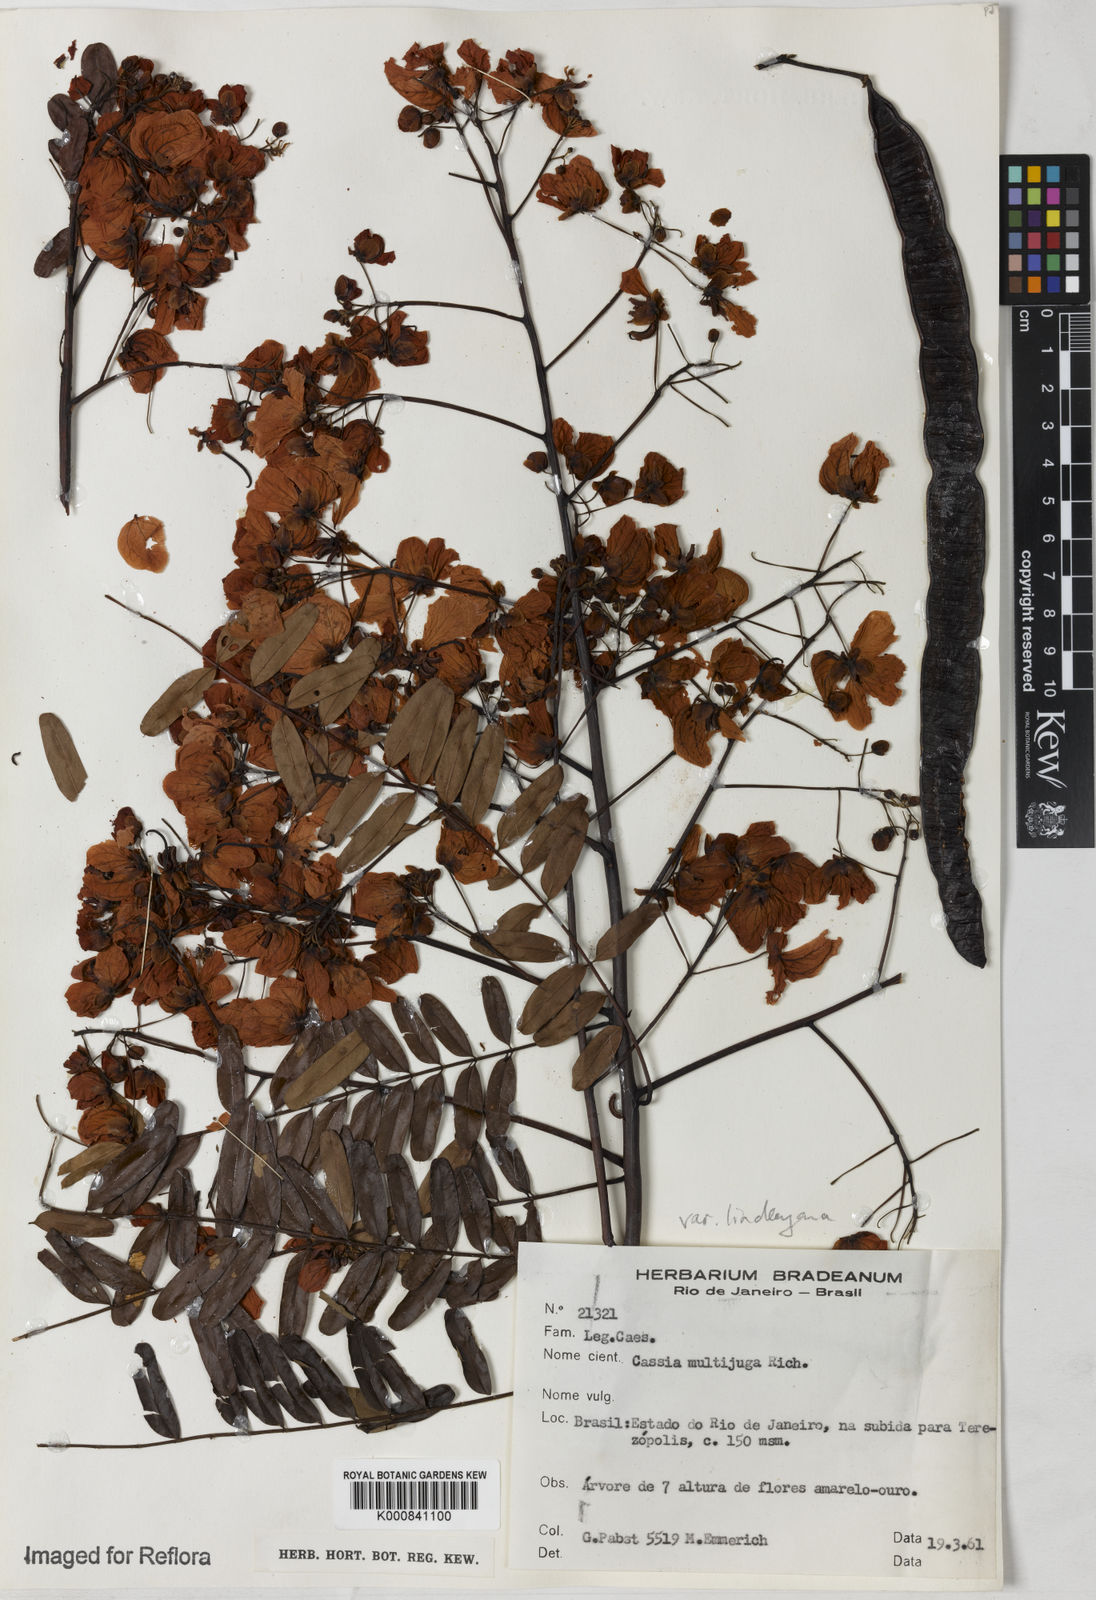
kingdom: Plantae
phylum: Tracheophyta
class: Magnoliopsida
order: Fabales
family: Fabaceae
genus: Senna
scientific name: Senna multijuga
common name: False sicklepod
